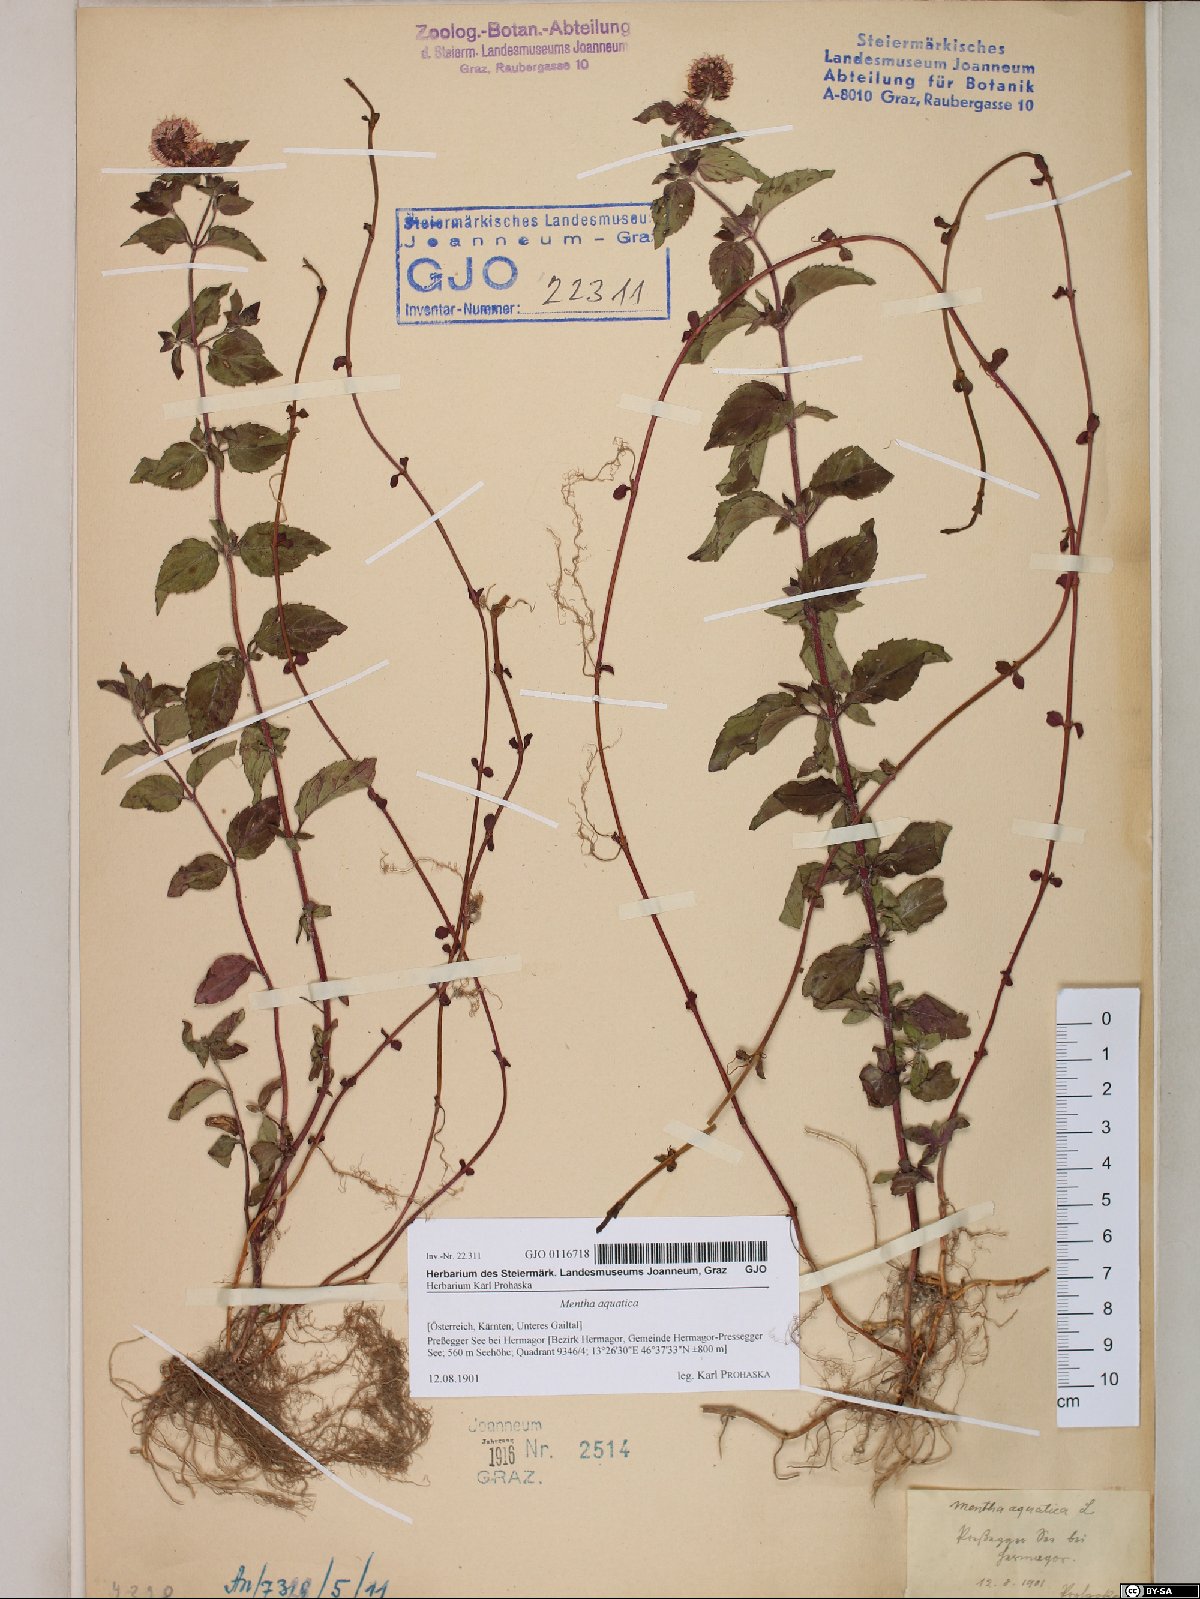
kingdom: Plantae
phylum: Tracheophyta
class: Magnoliopsida
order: Lamiales
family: Lamiaceae
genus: Mentha
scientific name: Mentha aquatica
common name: Water mint
